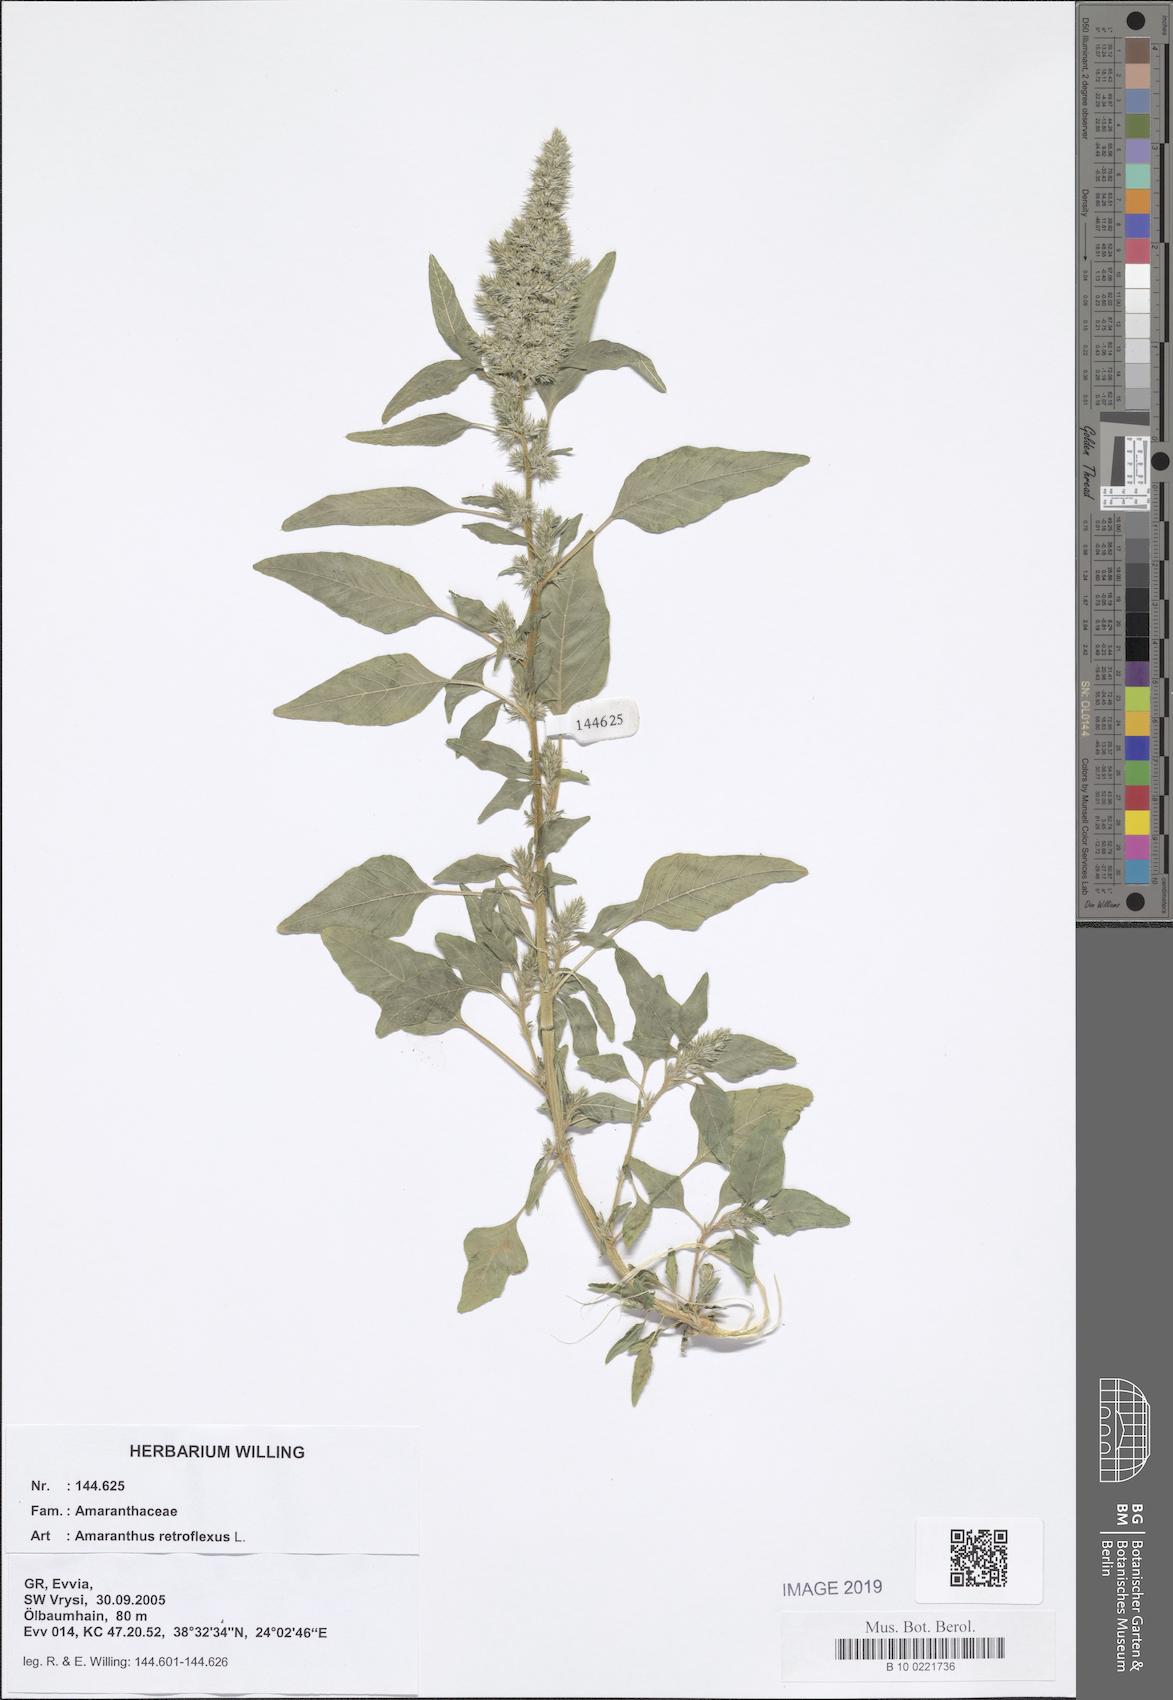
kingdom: Plantae
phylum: Tracheophyta
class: Magnoliopsida
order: Caryophyllales
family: Amaranthaceae
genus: Amaranthus
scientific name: Amaranthus retroflexus
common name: Redroot amaranth
